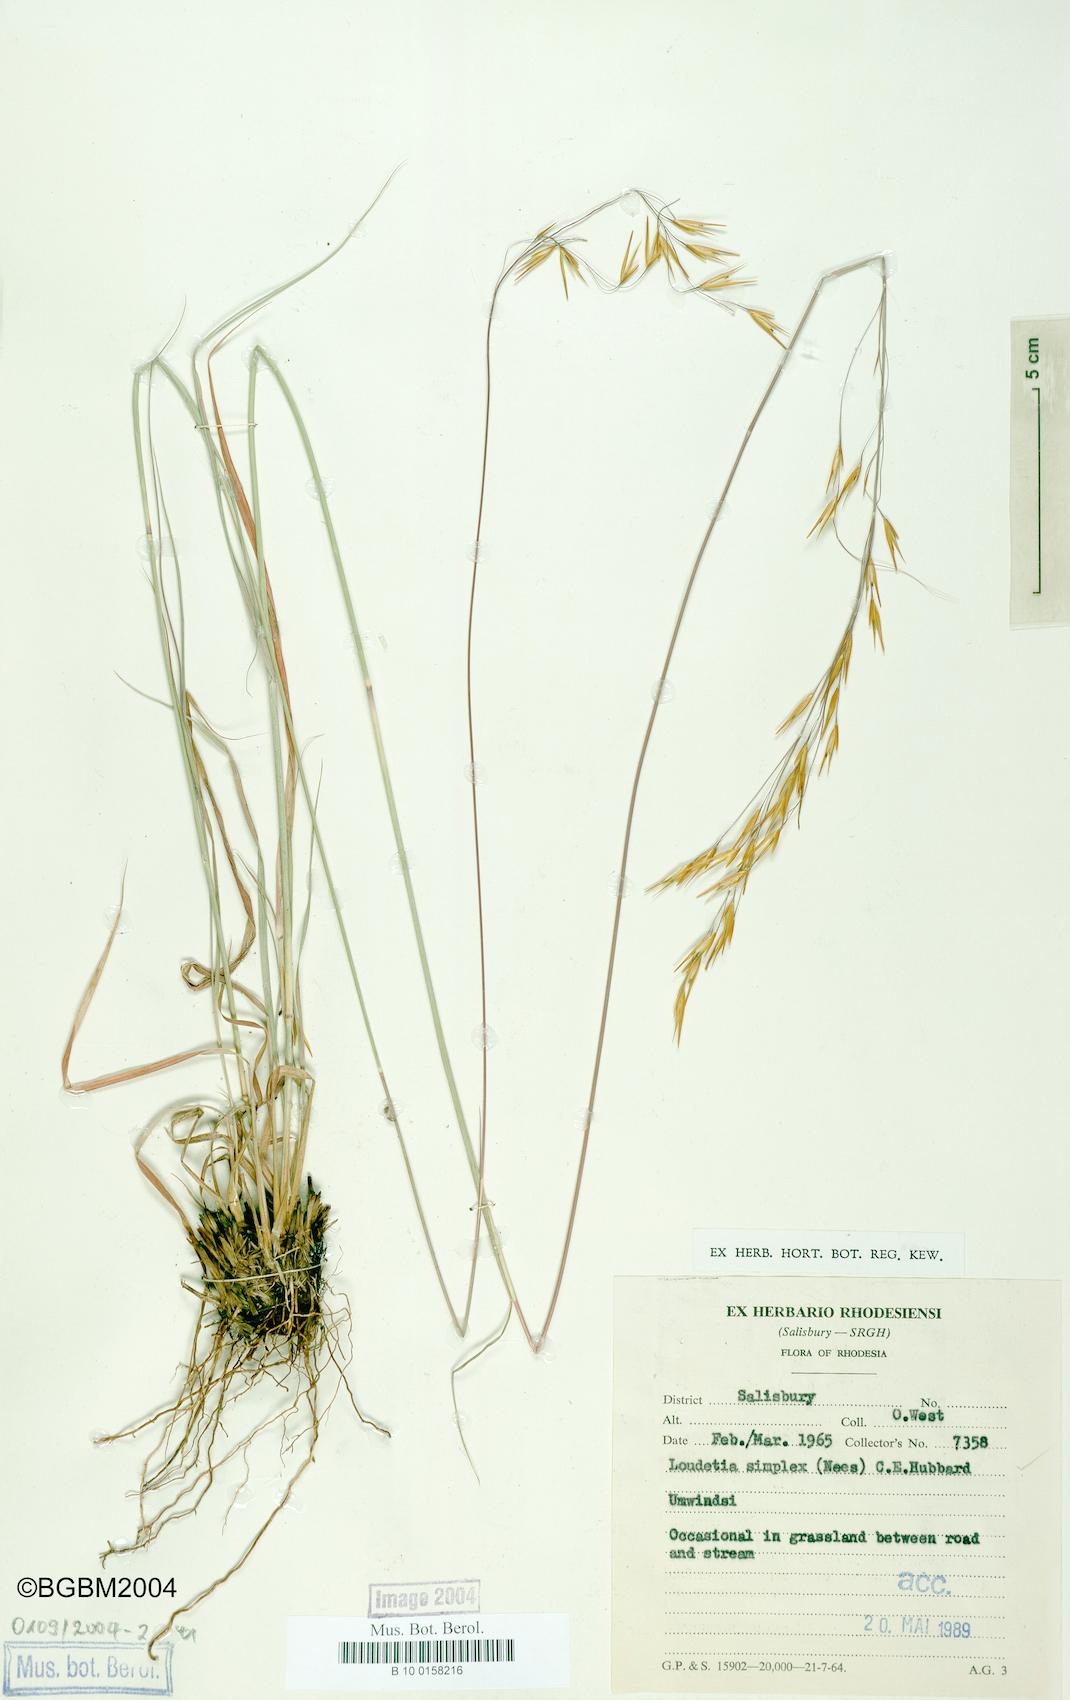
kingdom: Plantae
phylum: Tracheophyta
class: Liliopsida
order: Poales
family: Poaceae
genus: Loudetia
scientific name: Loudetia simplex
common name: Common russet grass
